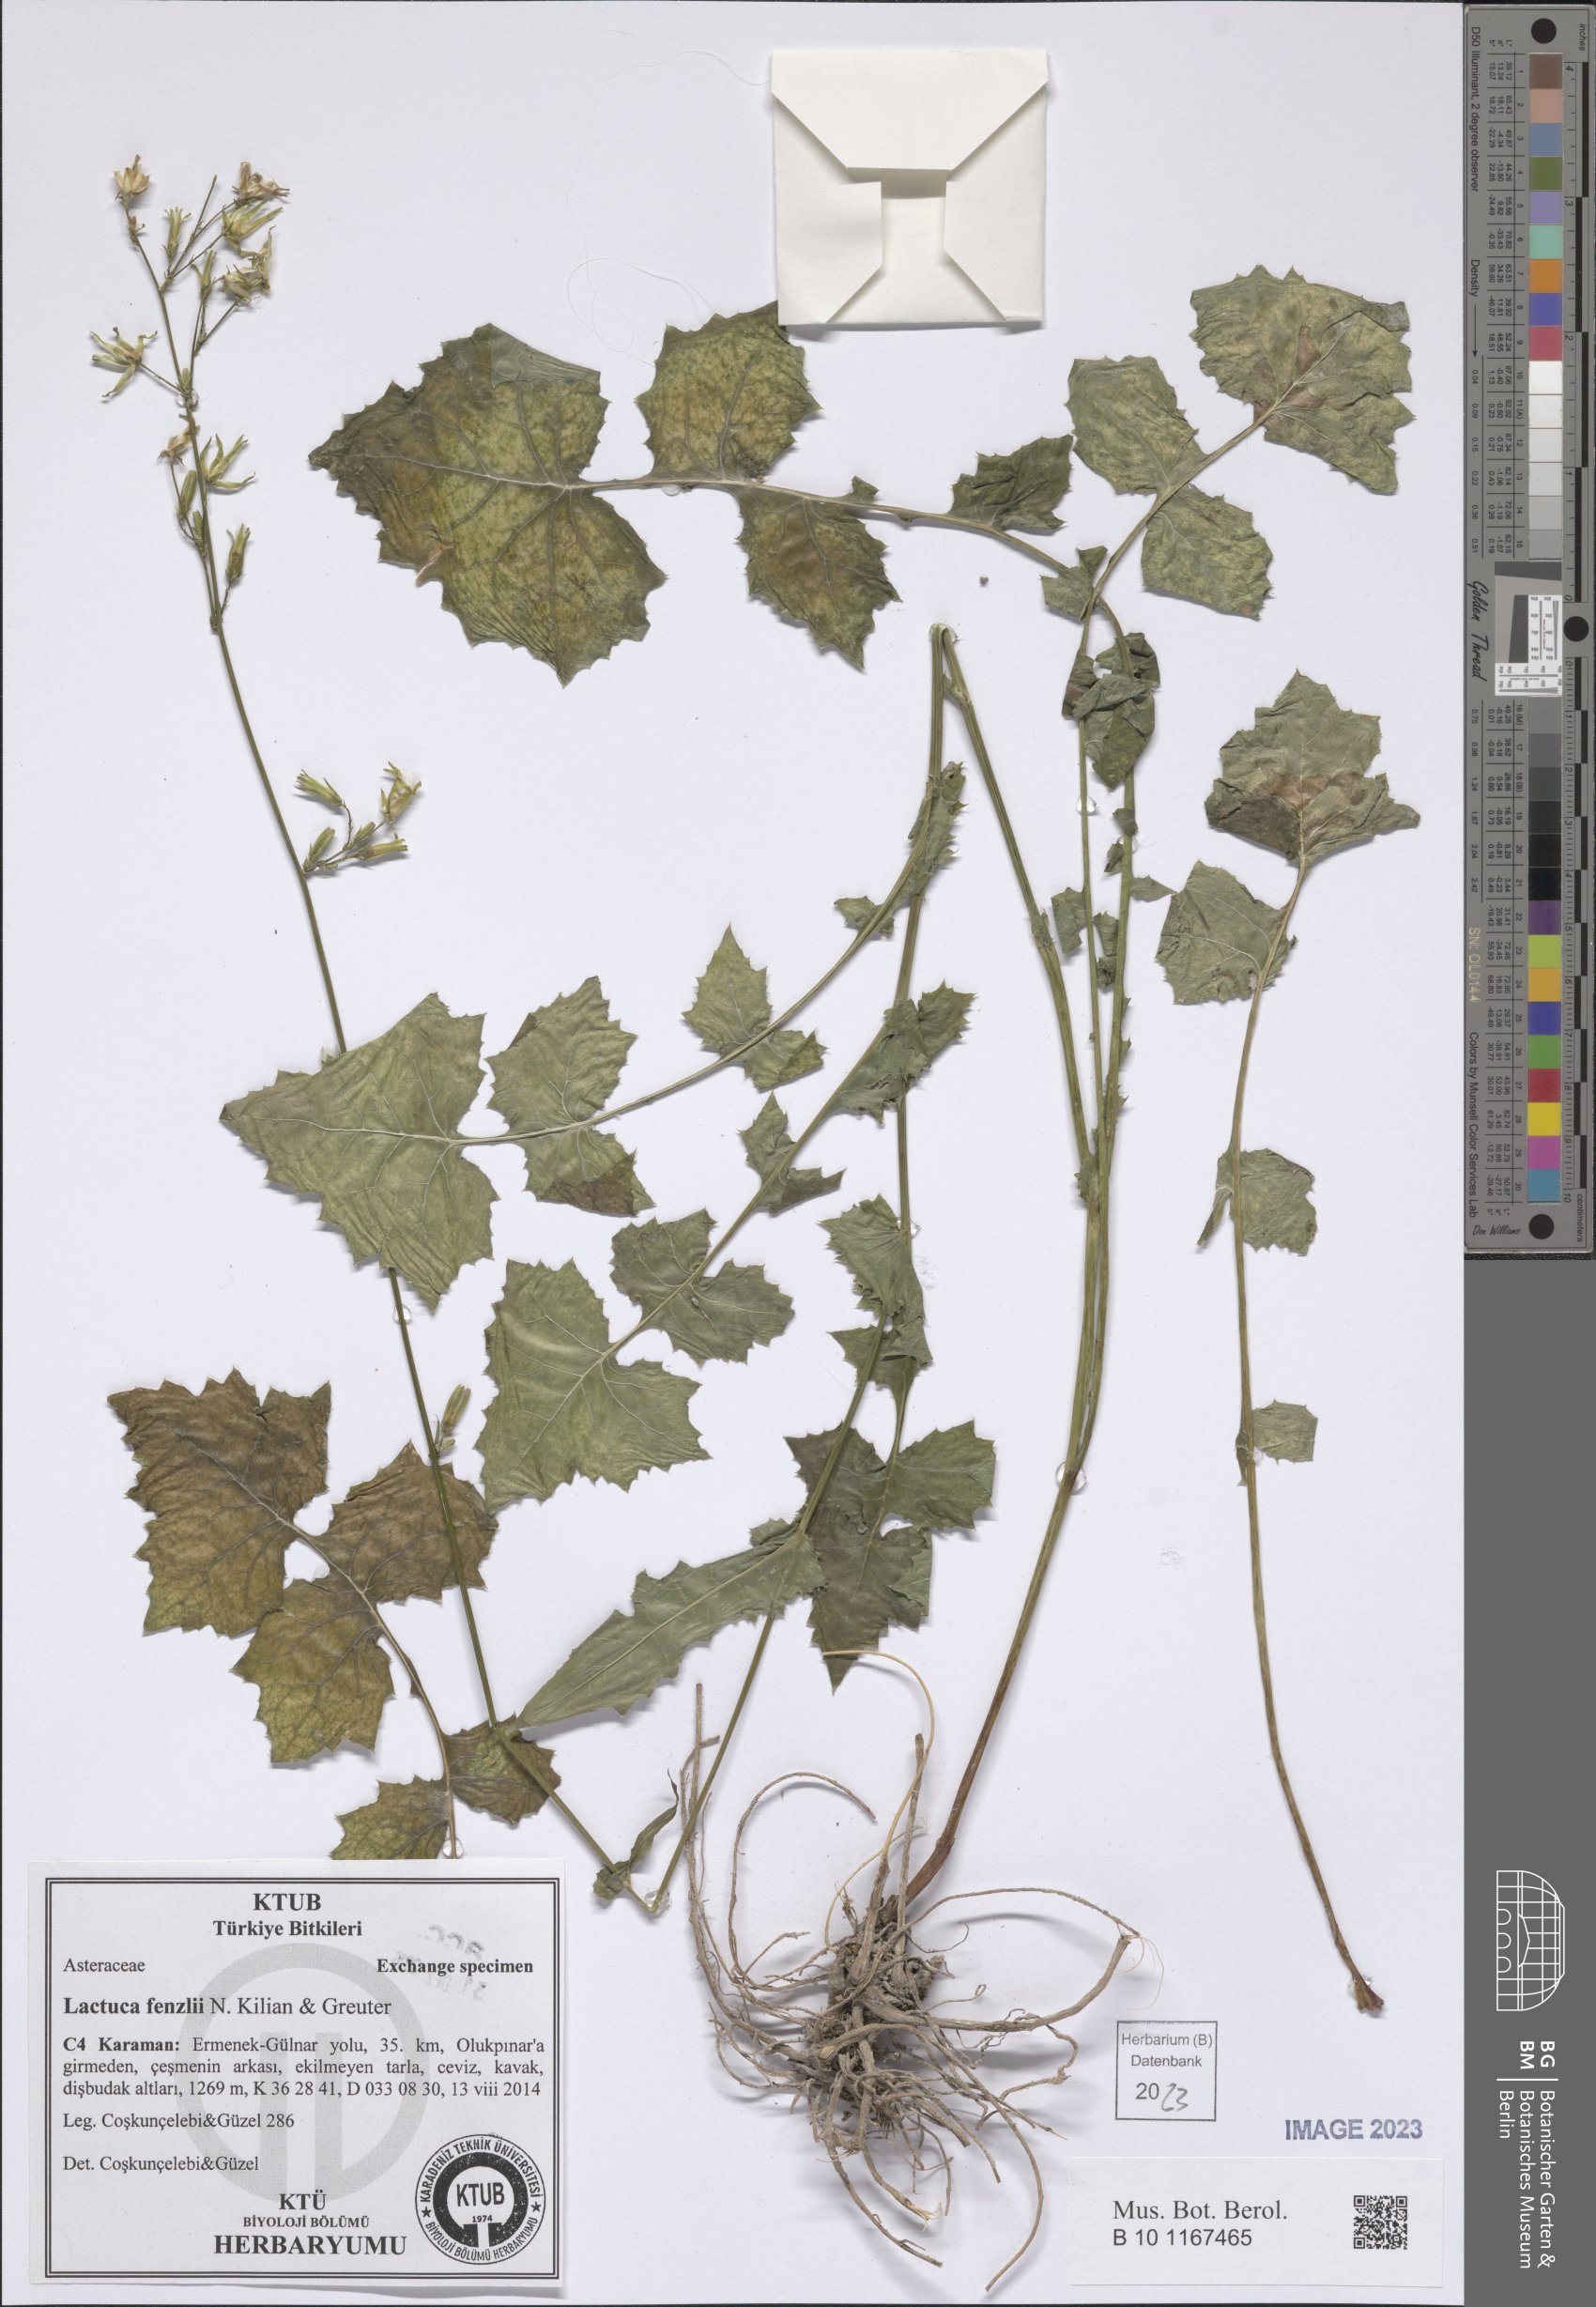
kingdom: Plantae
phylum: Tracheophyta
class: Magnoliopsida
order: Asterales
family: Asteraceae
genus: Lactuca
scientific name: Lactuca fenzlii
